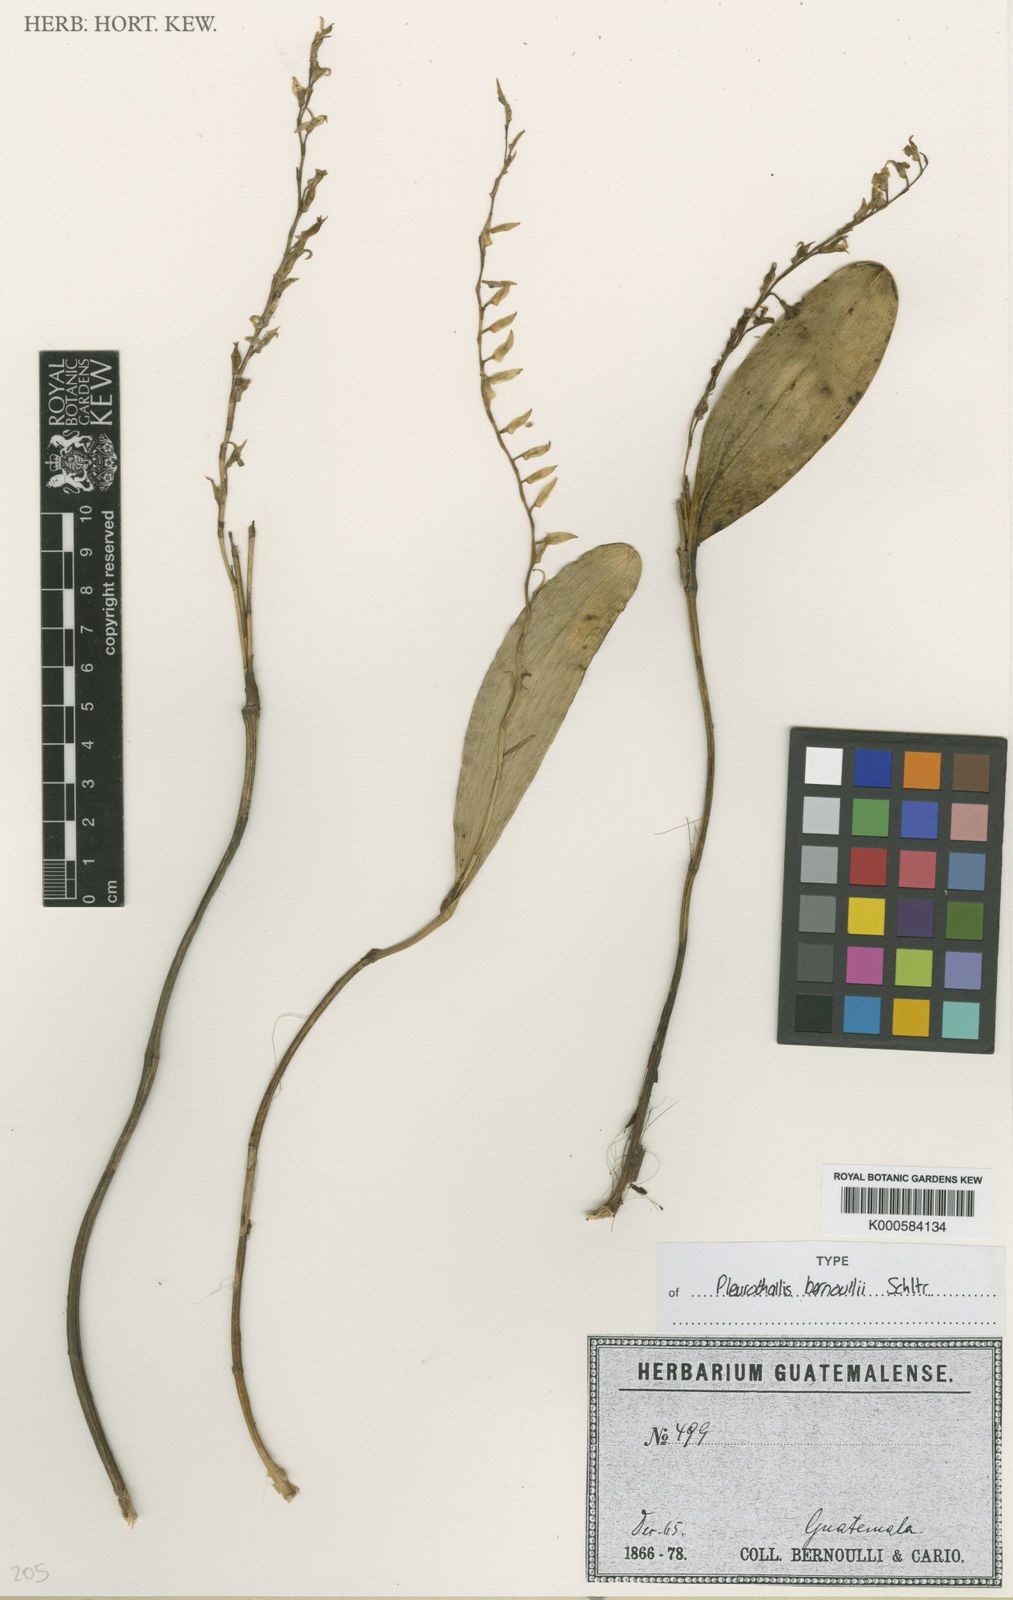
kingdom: Plantae
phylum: Tracheophyta
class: Liliopsida
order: Asparagales
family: Orchidaceae
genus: Stelis
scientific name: Stelis platystylis
